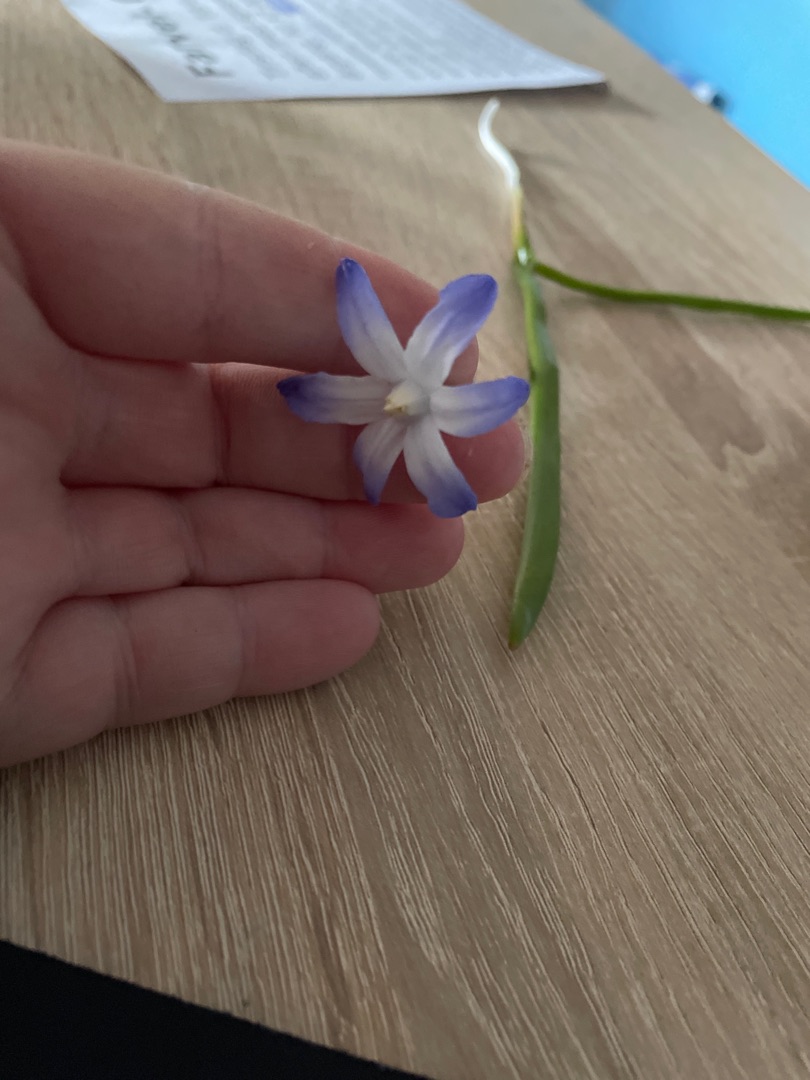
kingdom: Plantae
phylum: Tracheophyta
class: Liliopsida
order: Asparagales
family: Asparagaceae
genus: Scilla
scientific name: Scilla forbesii
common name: Almindelig snepryd
